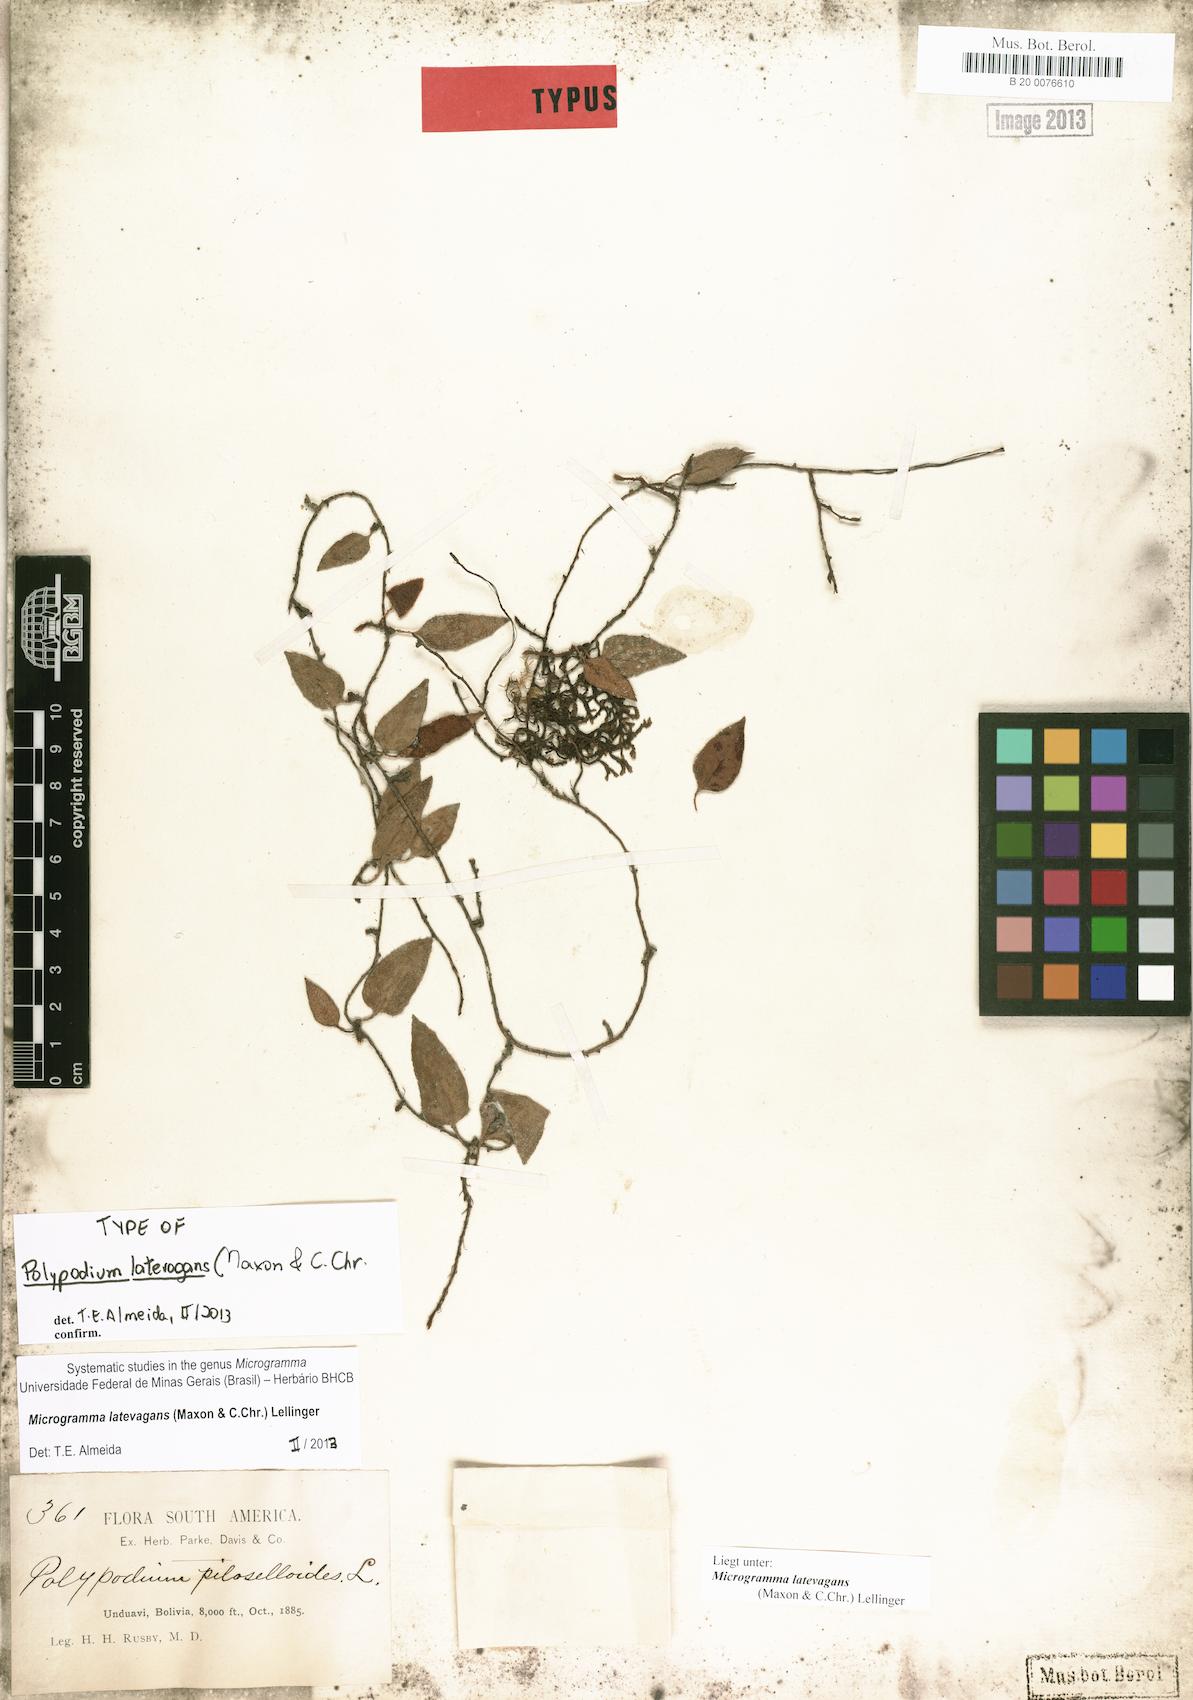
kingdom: Plantae
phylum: Tracheophyta
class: Polypodiopsida
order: Polypodiales
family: Polypodiaceae
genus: Microgramma
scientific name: Microgramma latevagans
